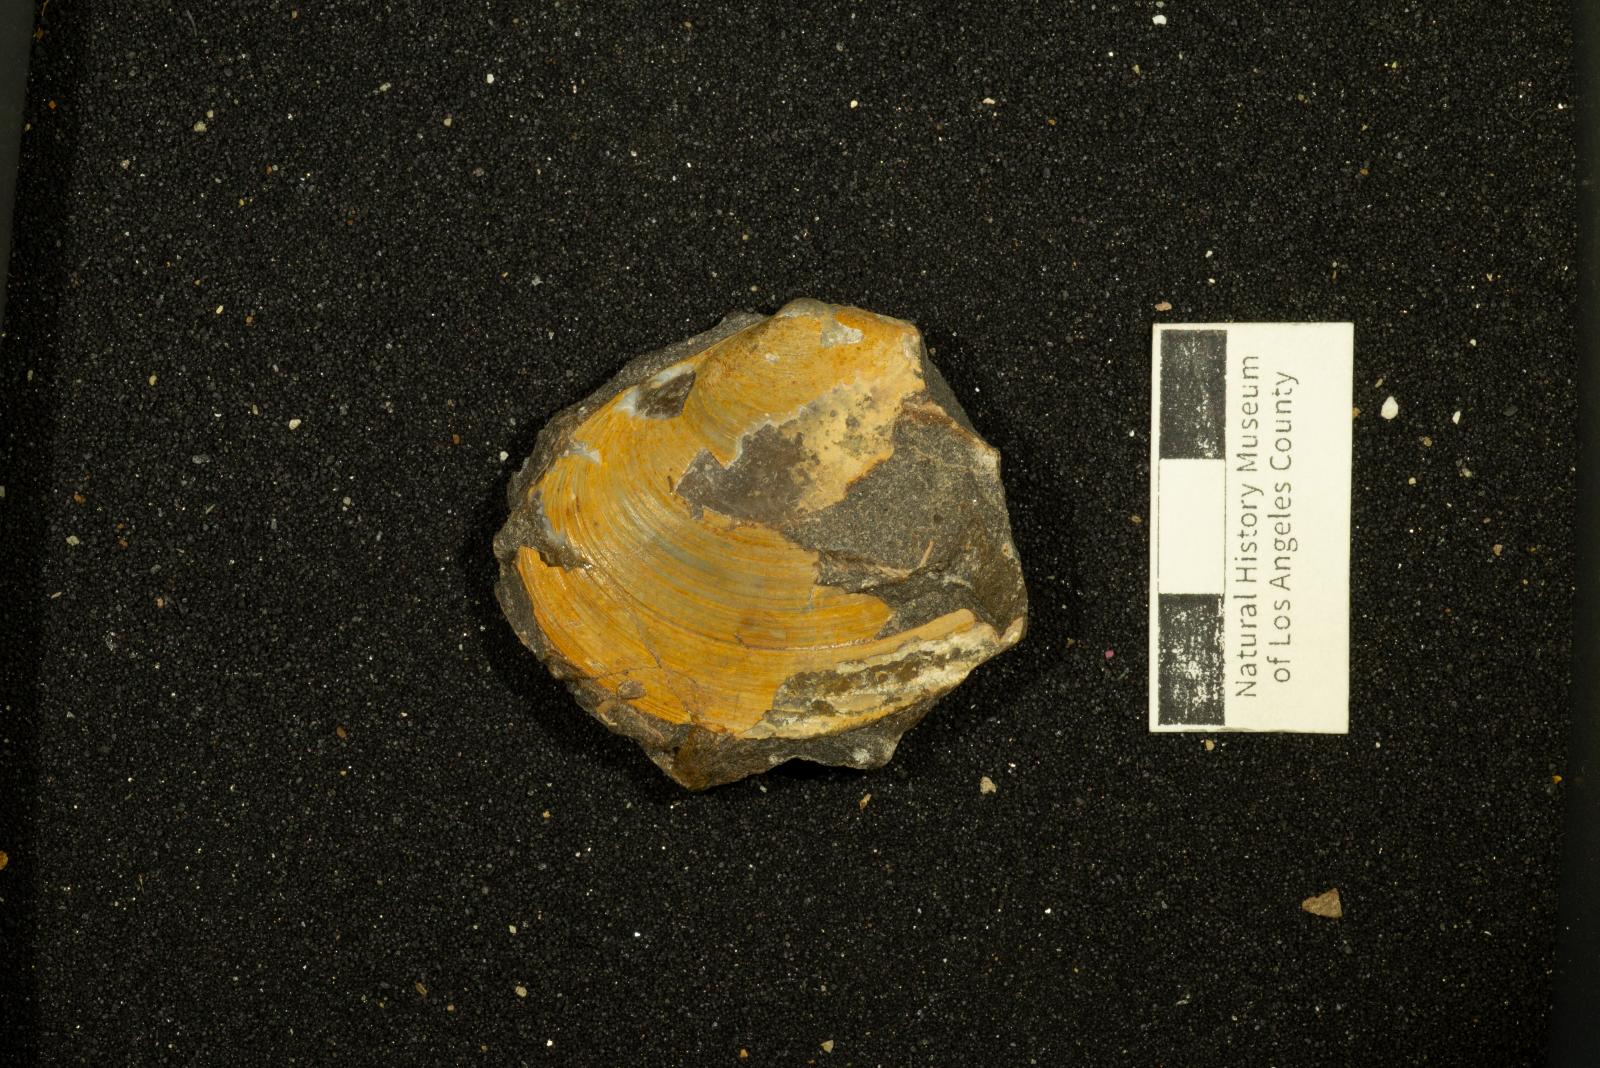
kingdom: Animalia
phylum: Mollusca
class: Bivalvia
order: Venerida
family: Mactridae
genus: Willimactra
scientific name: Willimactra popenoei
